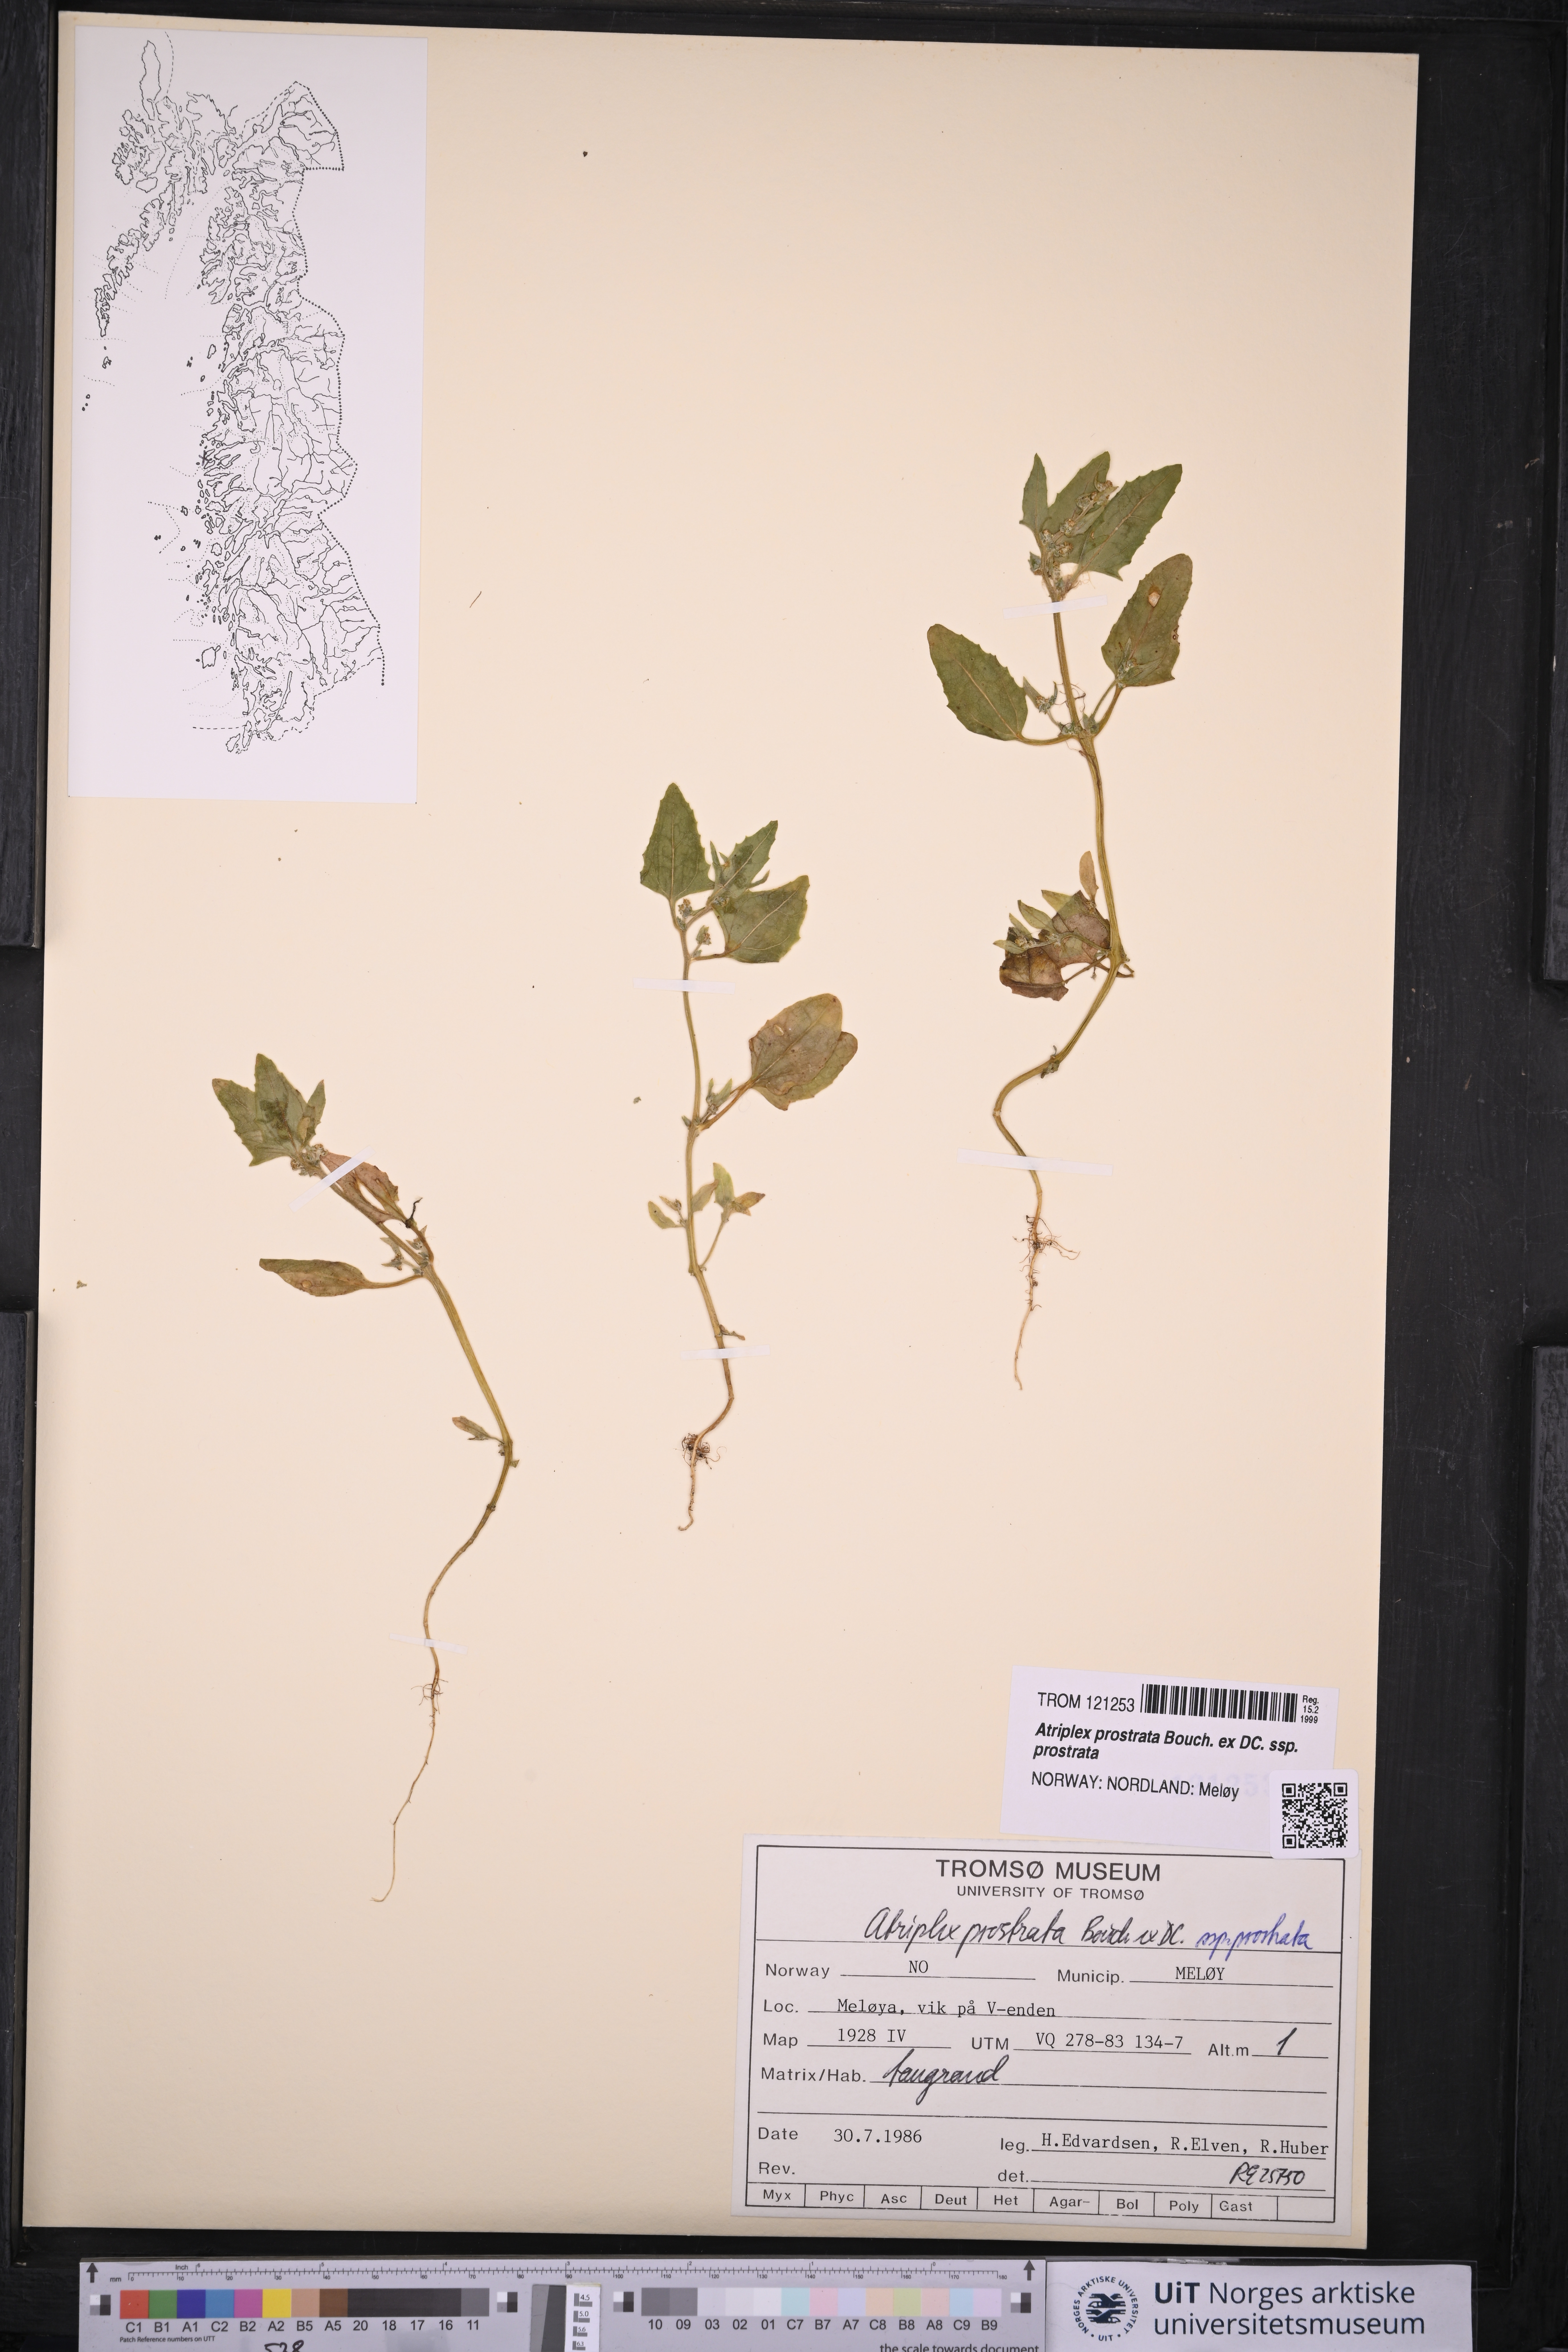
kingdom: Plantae
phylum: Tracheophyta
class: Magnoliopsida
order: Caryophyllales
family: Amaranthaceae
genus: Atriplex
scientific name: Atriplex prostrata
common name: Spear-leaved orache
